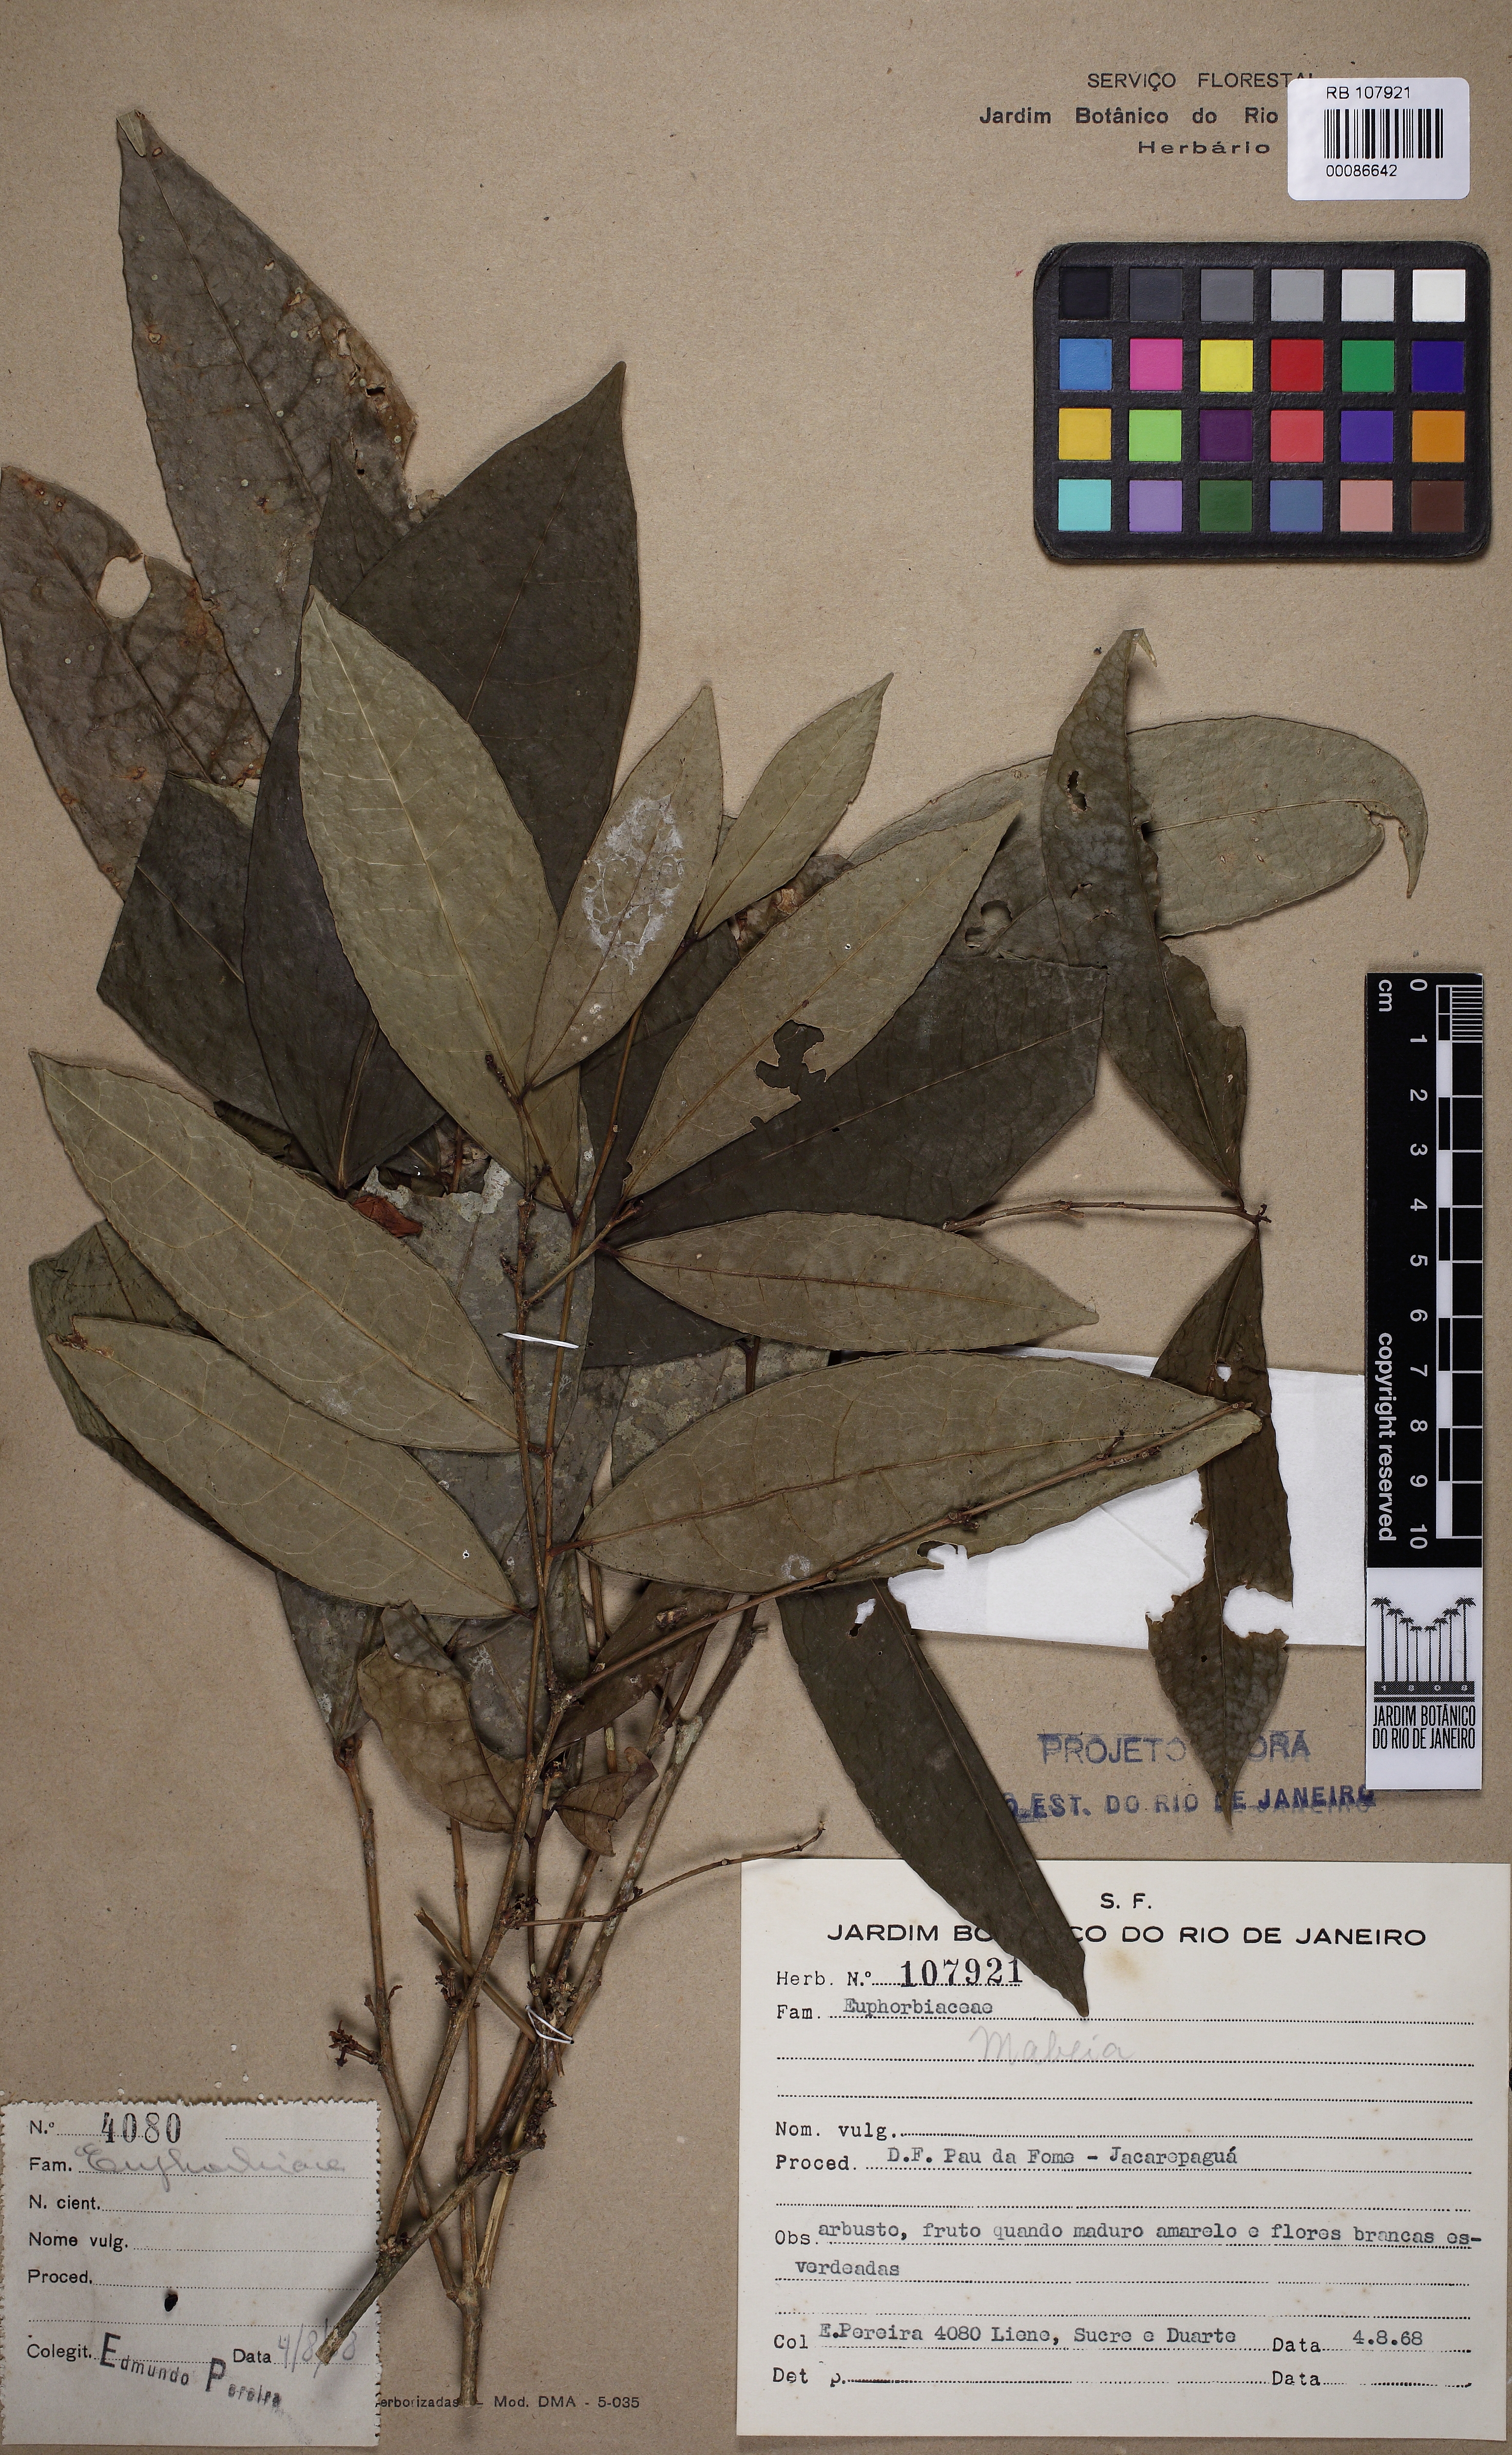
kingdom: Plantae
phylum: Tracheophyta
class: Magnoliopsida
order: Malpighiales
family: Euphorbiaceae
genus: Mabea
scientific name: Mabea
